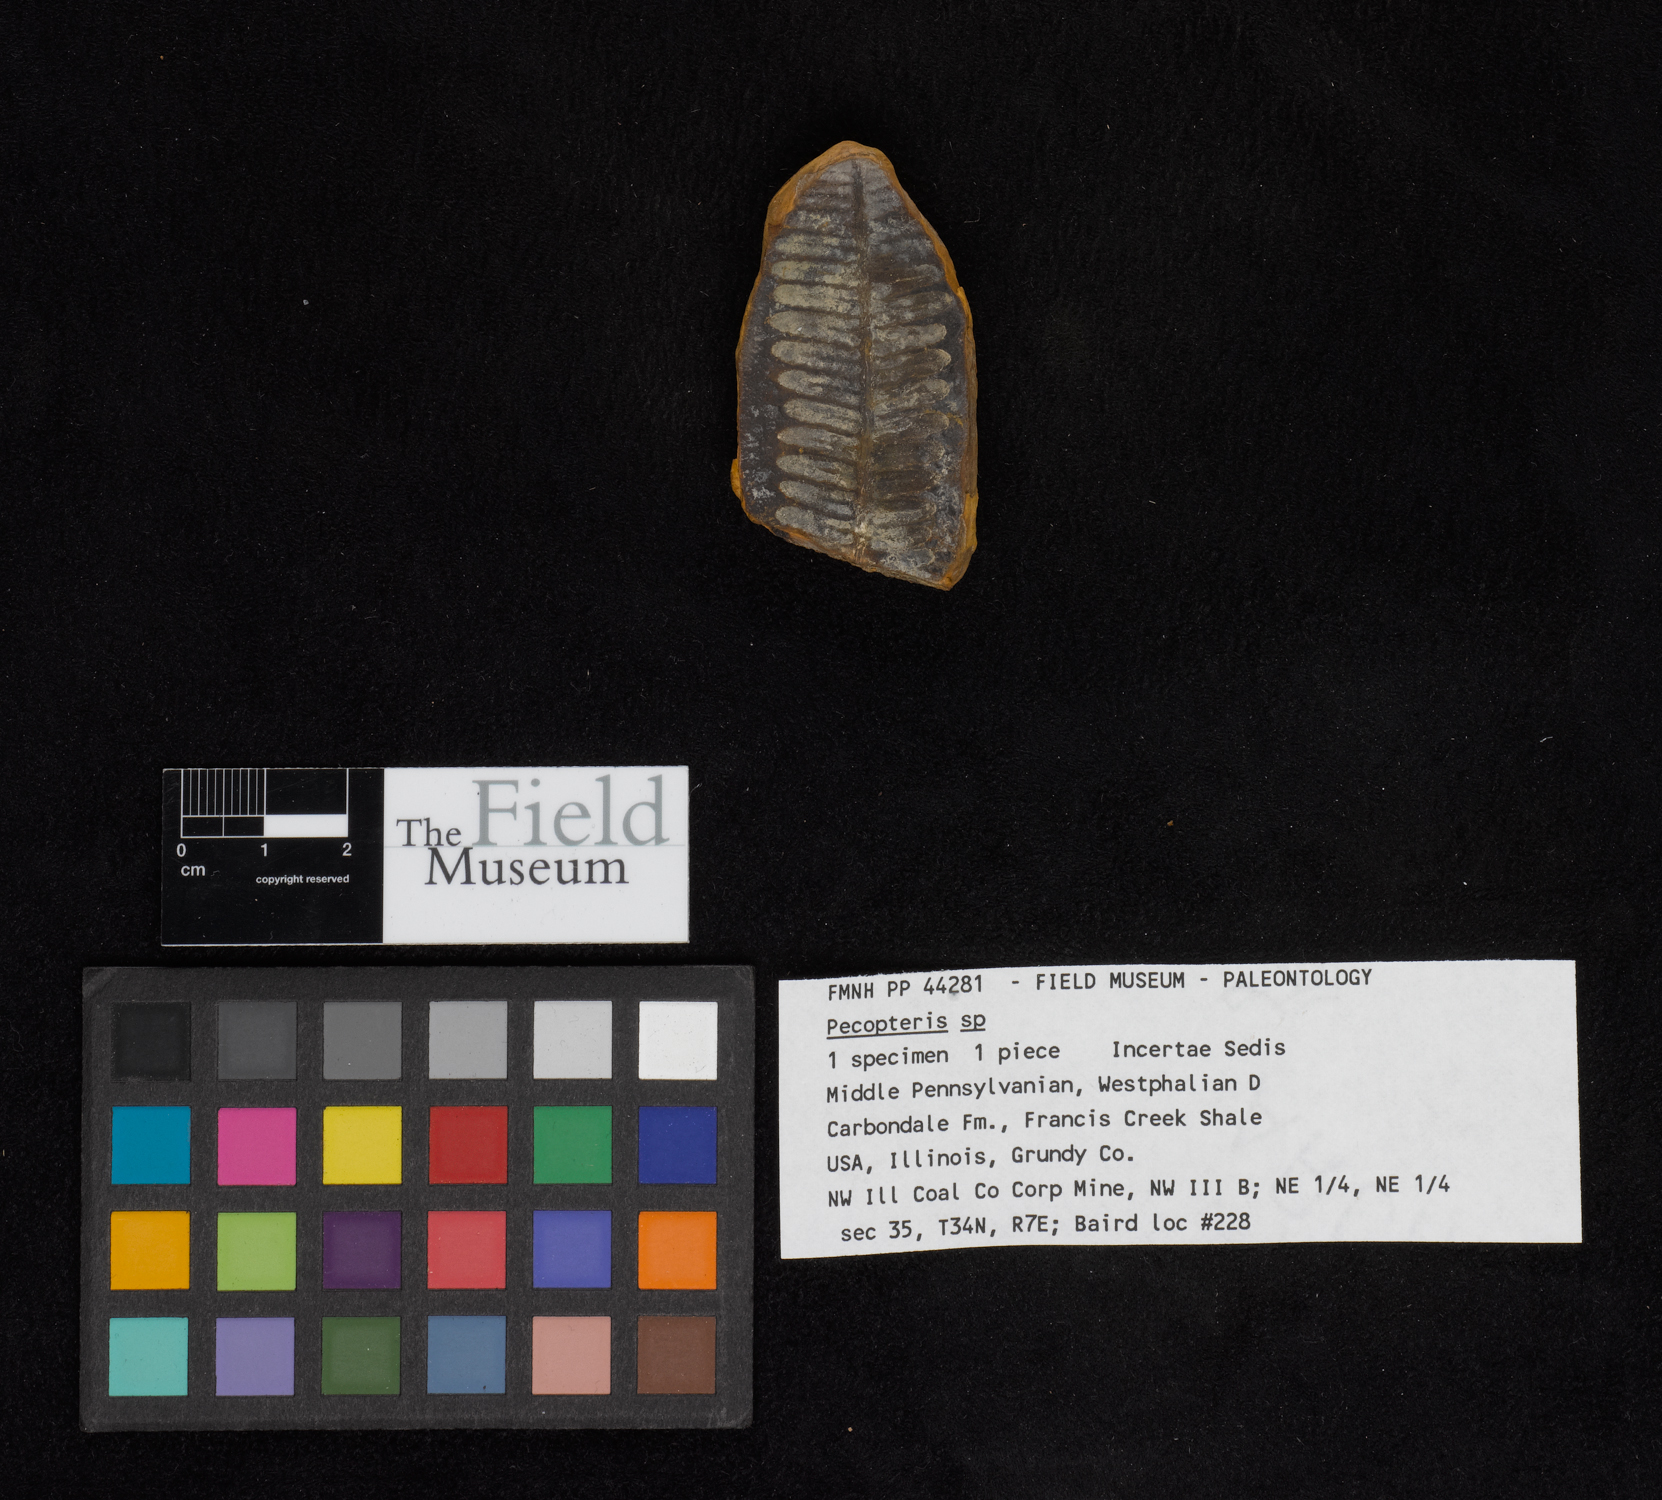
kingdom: Plantae
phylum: Tracheophyta
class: Polypodiopsida
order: Marattiales
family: Asterothecaceae
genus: Pecopteris
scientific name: Pecopteris
